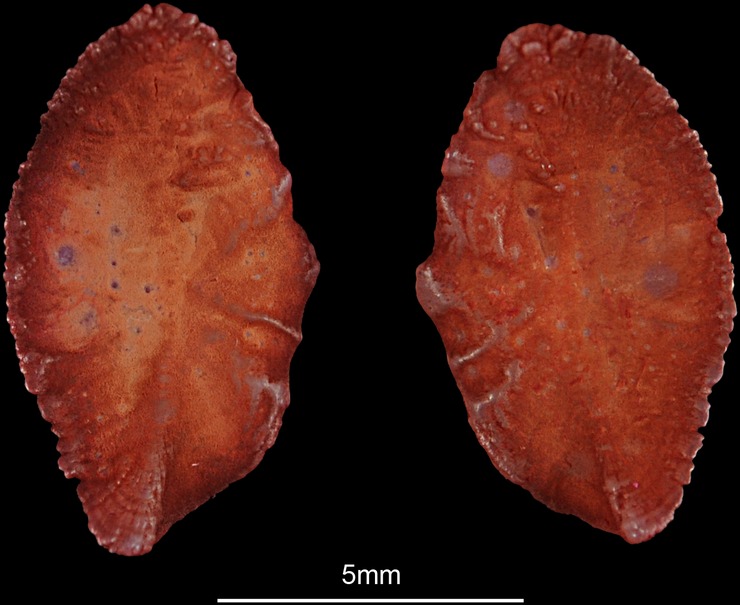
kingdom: Animalia
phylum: Chordata
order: Perciformes
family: Sparidae
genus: Pachymetopon
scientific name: Pachymetopon grande
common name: Bronze bream
